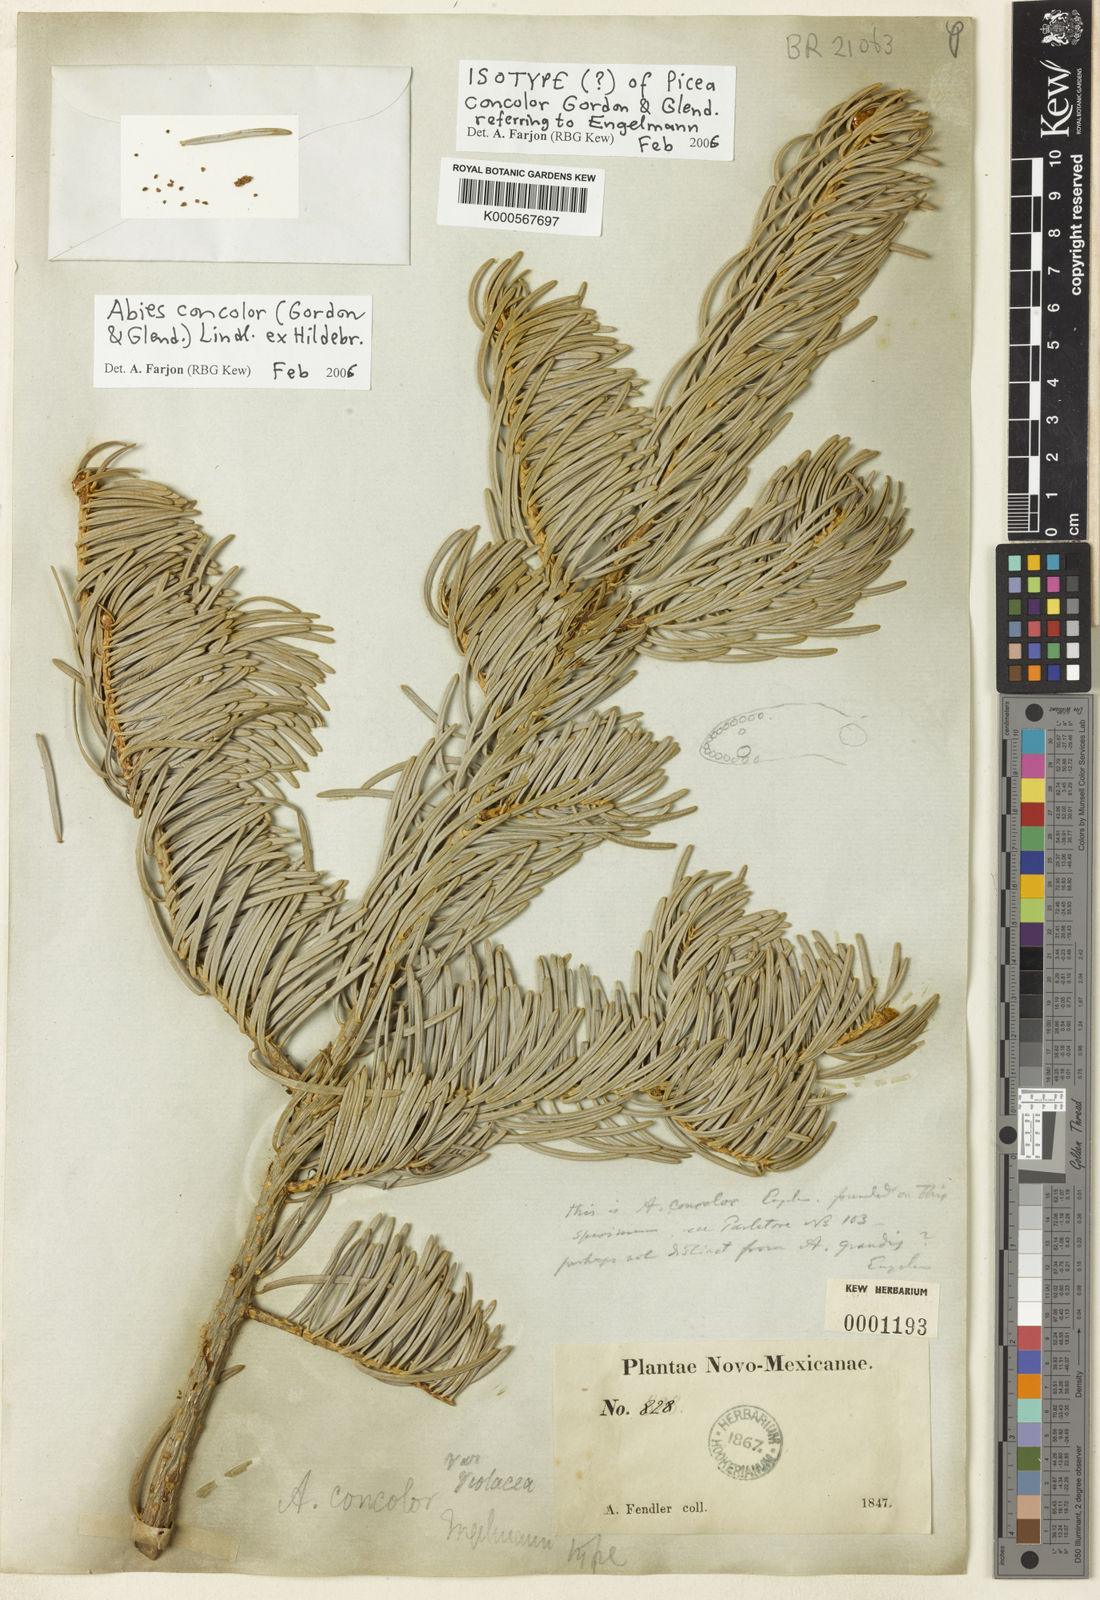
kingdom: Plantae
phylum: Tracheophyta
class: Pinopsida
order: Pinales
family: Pinaceae
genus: Abies
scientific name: Abies concolor
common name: Colorado fir
